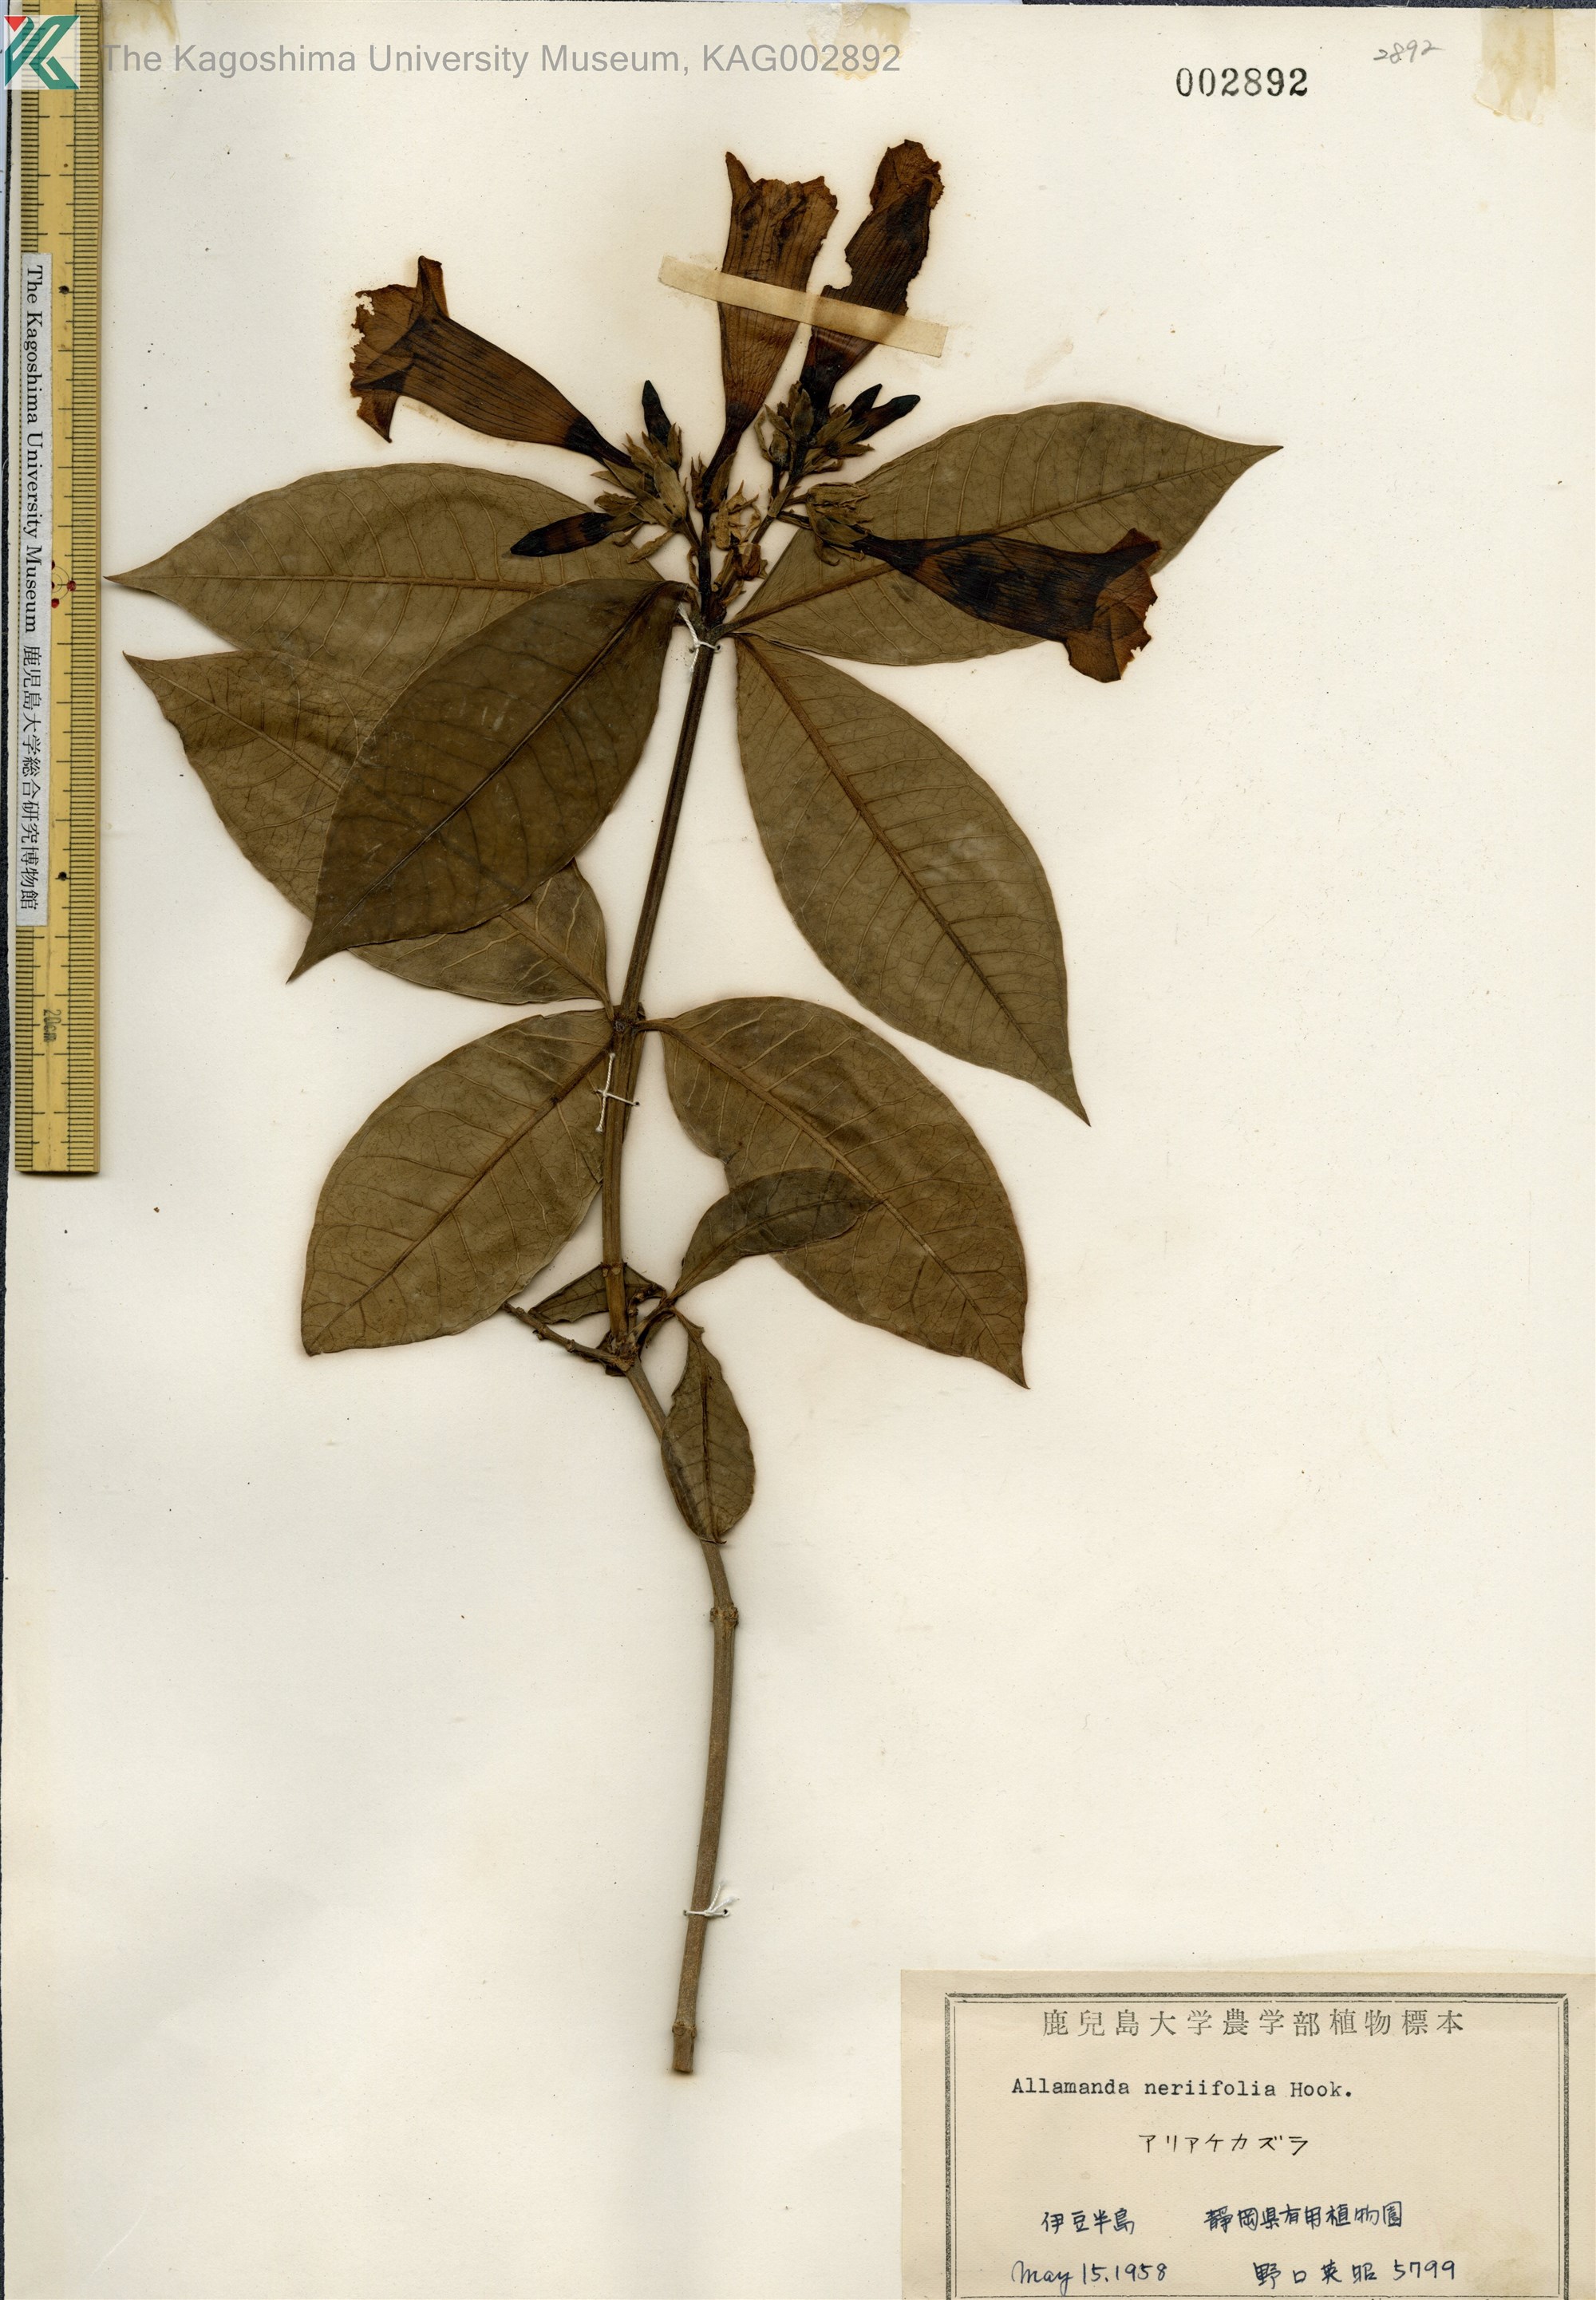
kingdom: Plantae
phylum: Tracheophyta
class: Magnoliopsida
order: Gentianales
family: Apocynaceae
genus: Allamanda
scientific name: Allamanda schottii
